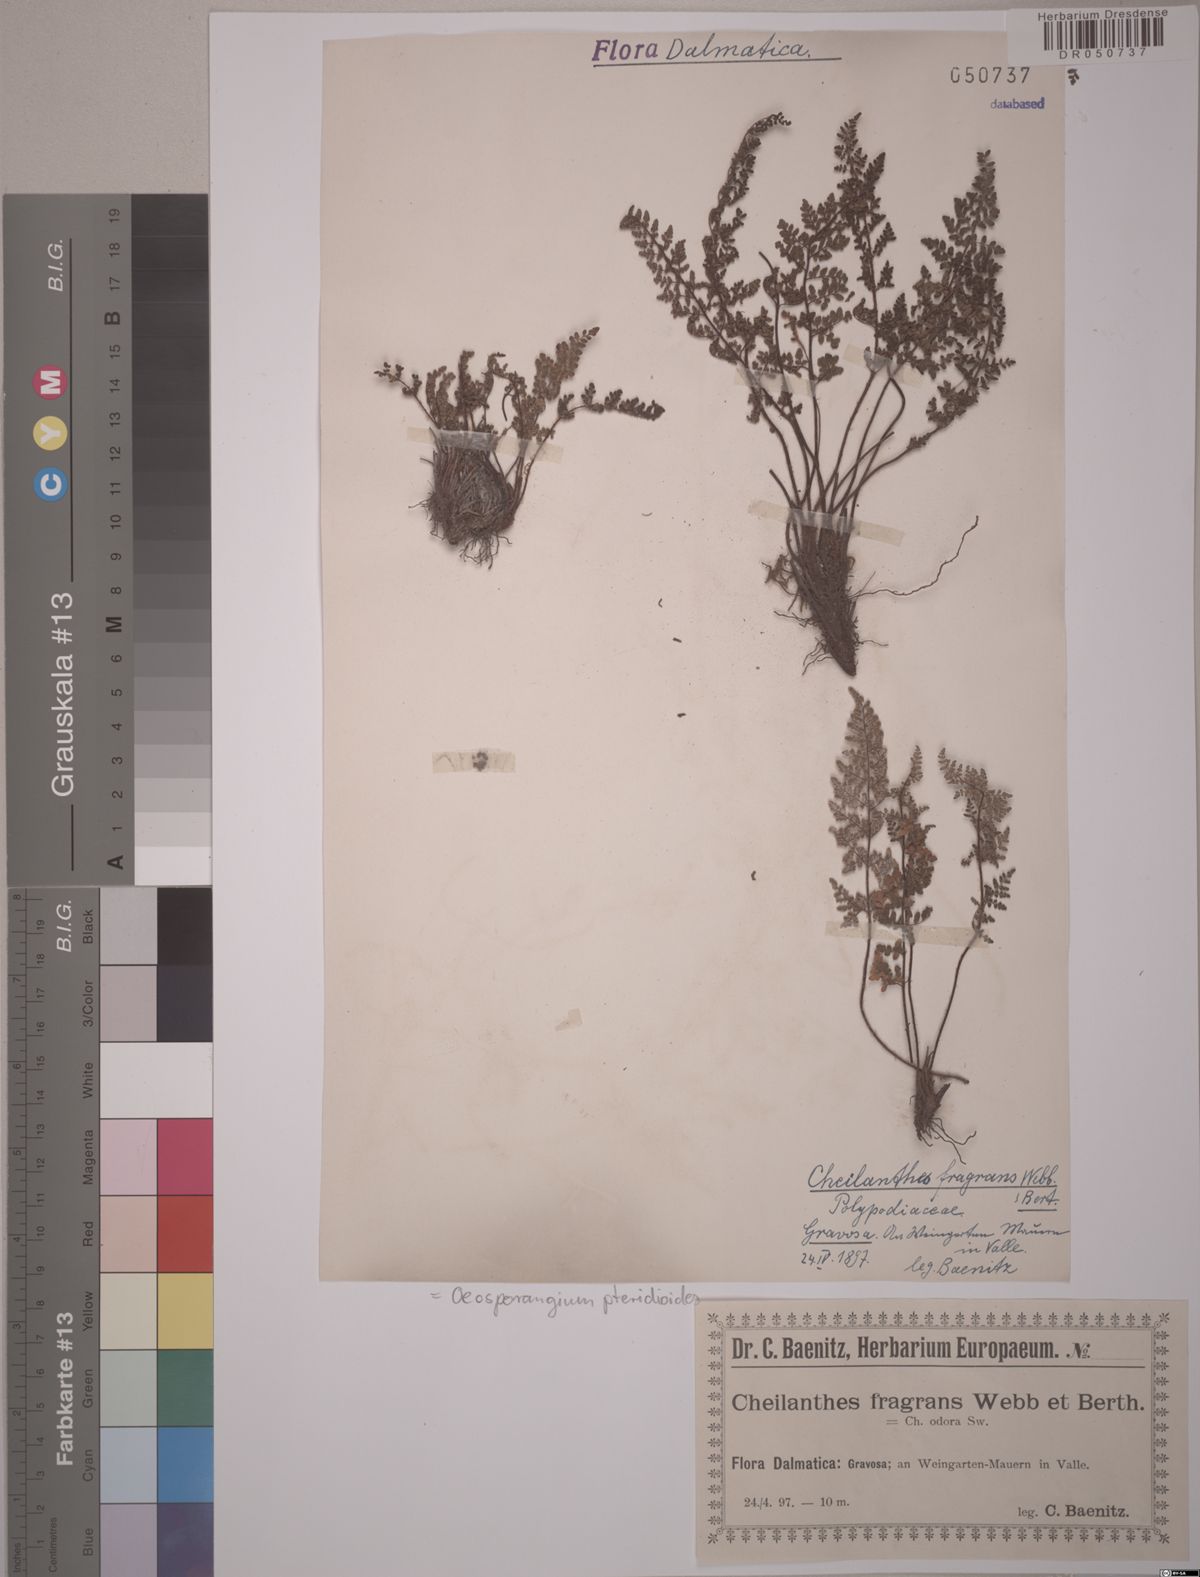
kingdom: Plantae
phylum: Tracheophyta
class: Polypodiopsida
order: Polypodiales
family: Pteridaceae
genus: Oeosporangium
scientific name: Oeosporangium pteridioides
